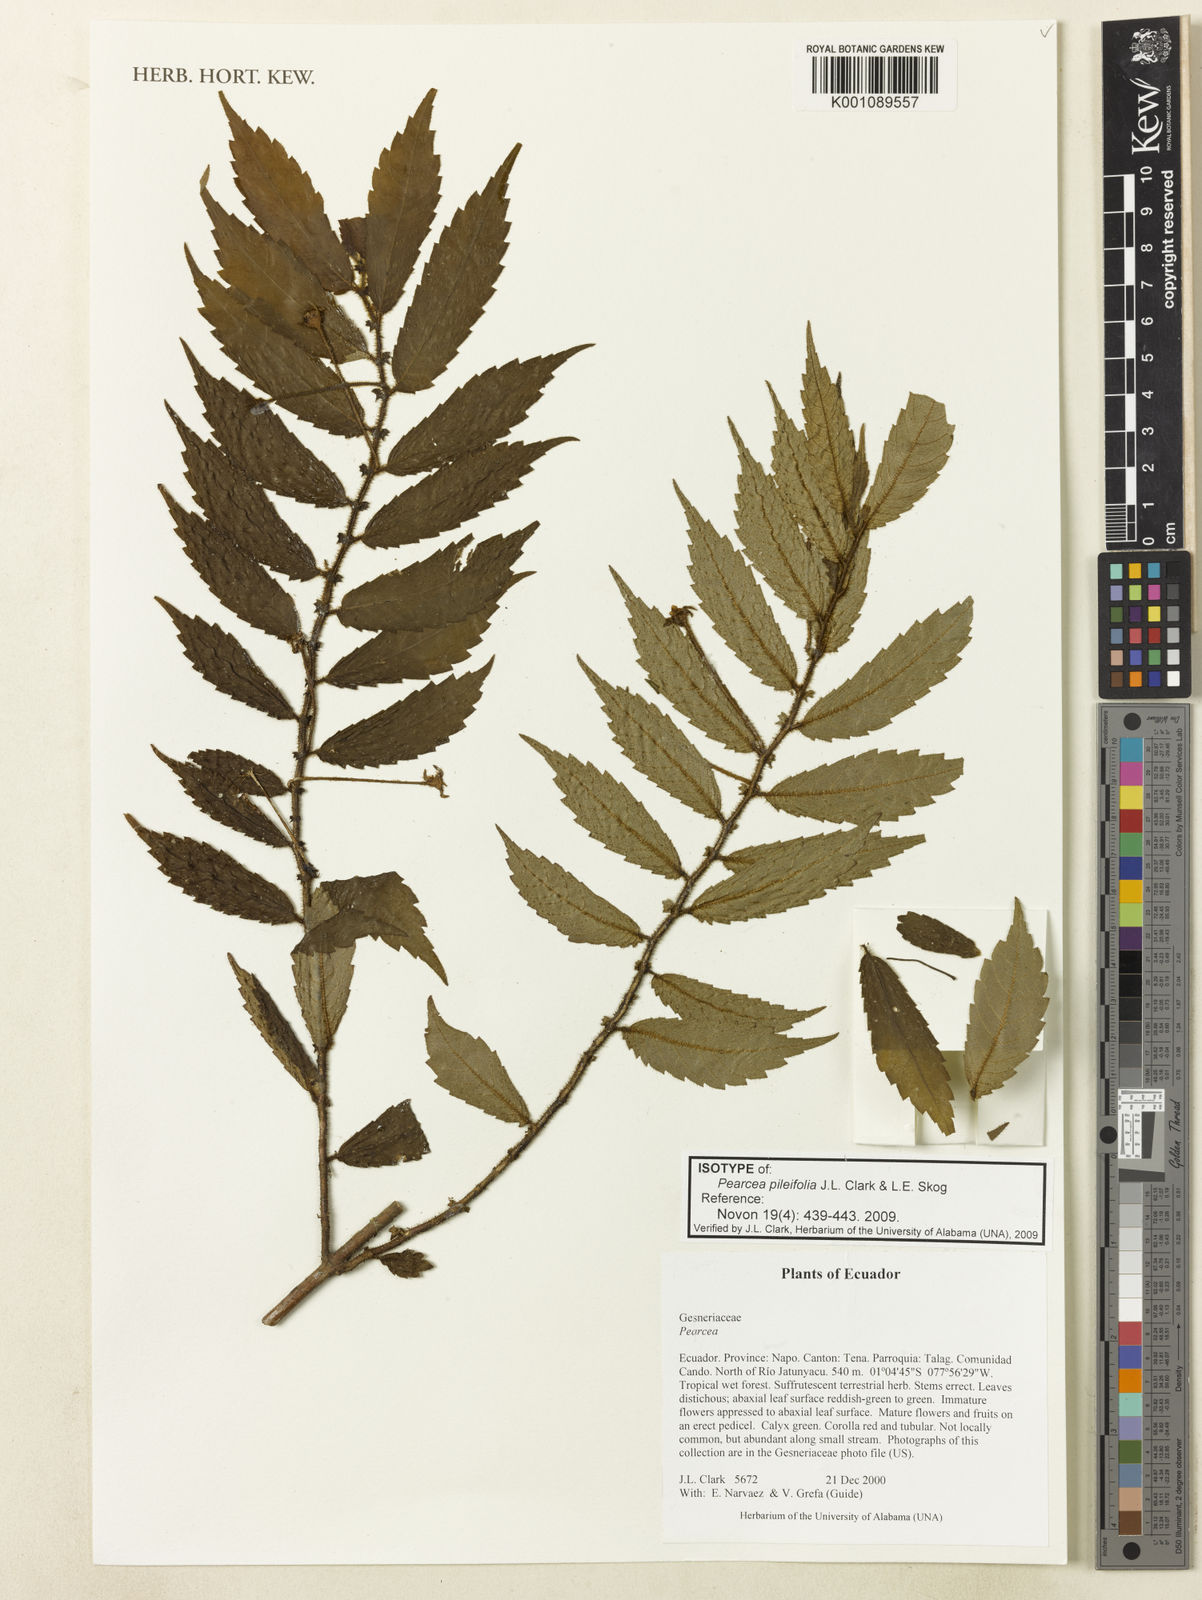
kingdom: Plantae
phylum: Tracheophyta
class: Magnoliopsida
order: Lamiales
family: Gesneriaceae
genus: Pearcea
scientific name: Pearcea pileifolia
